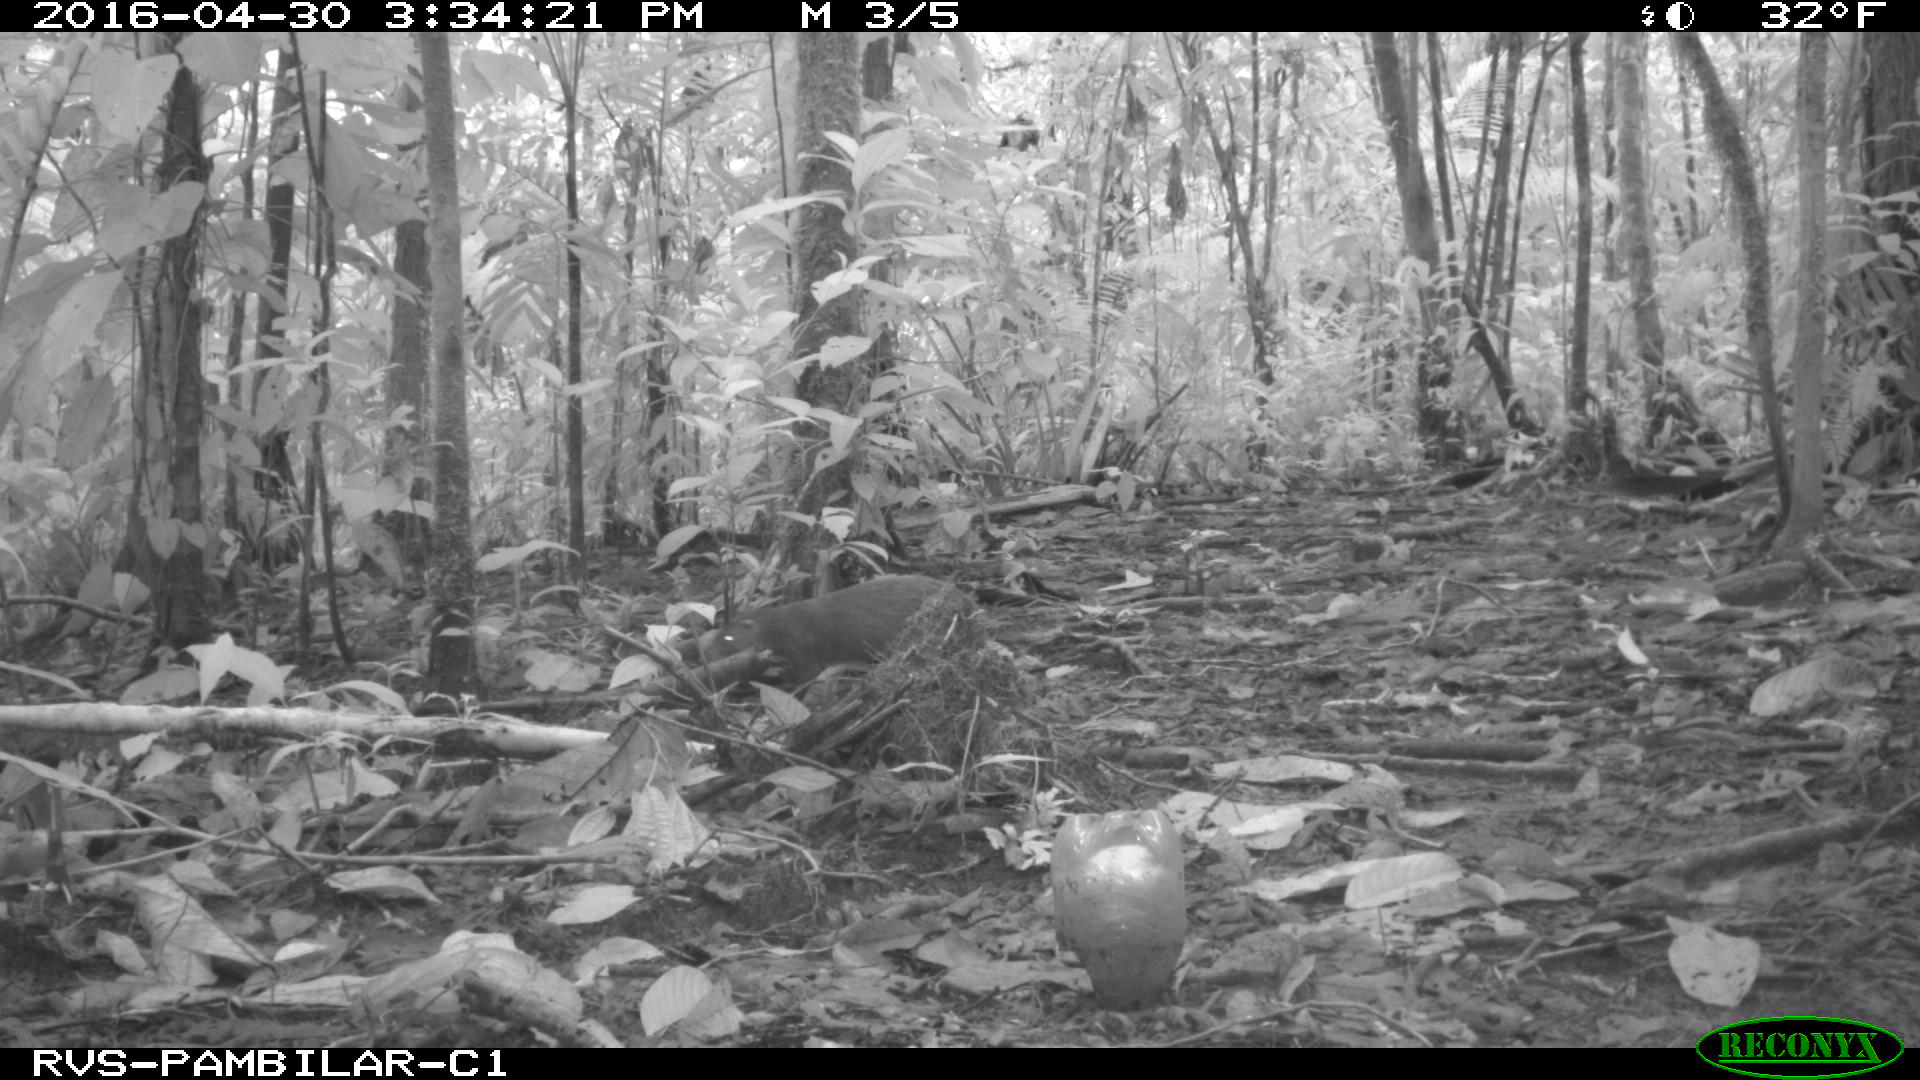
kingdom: Animalia
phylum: Chordata
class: Mammalia
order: Rodentia
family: Dasyproctidae
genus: Dasyprocta
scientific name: Dasyprocta punctata
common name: Central american agouti
